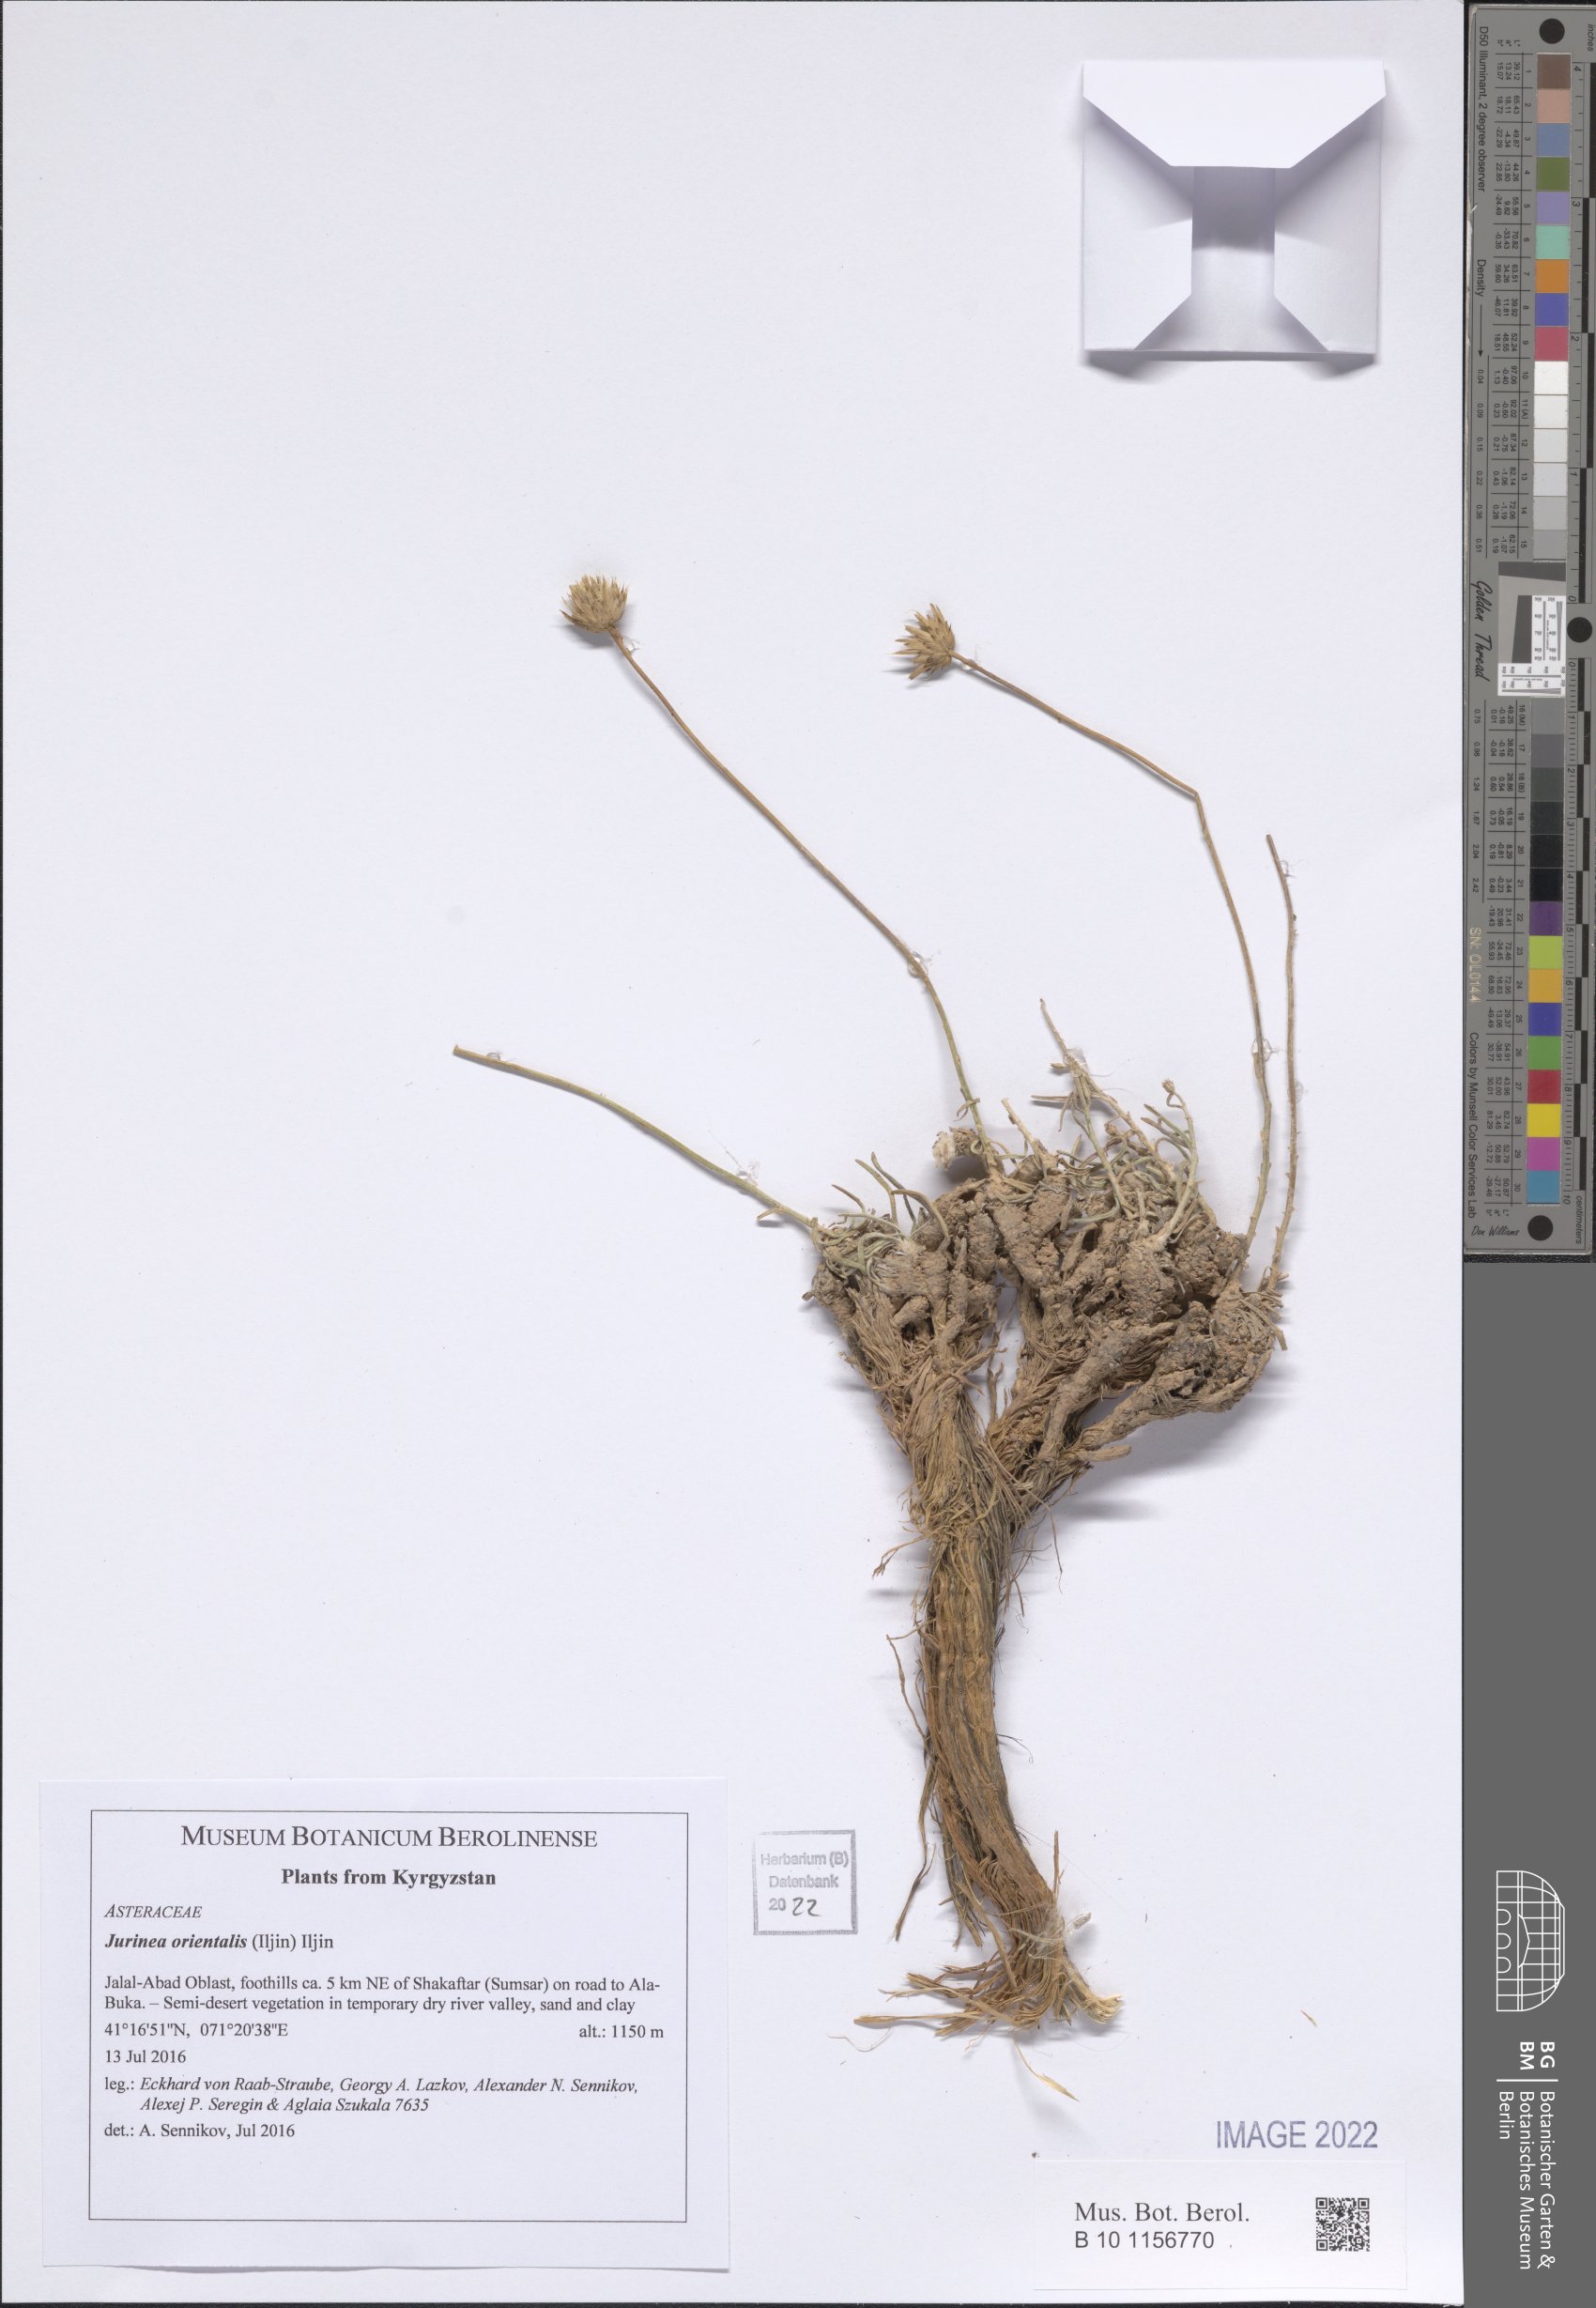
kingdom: Plantae
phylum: Tracheophyta
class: Magnoliopsida
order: Asterales
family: Asteraceae
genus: Jurinea
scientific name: Jurinea orientalis
